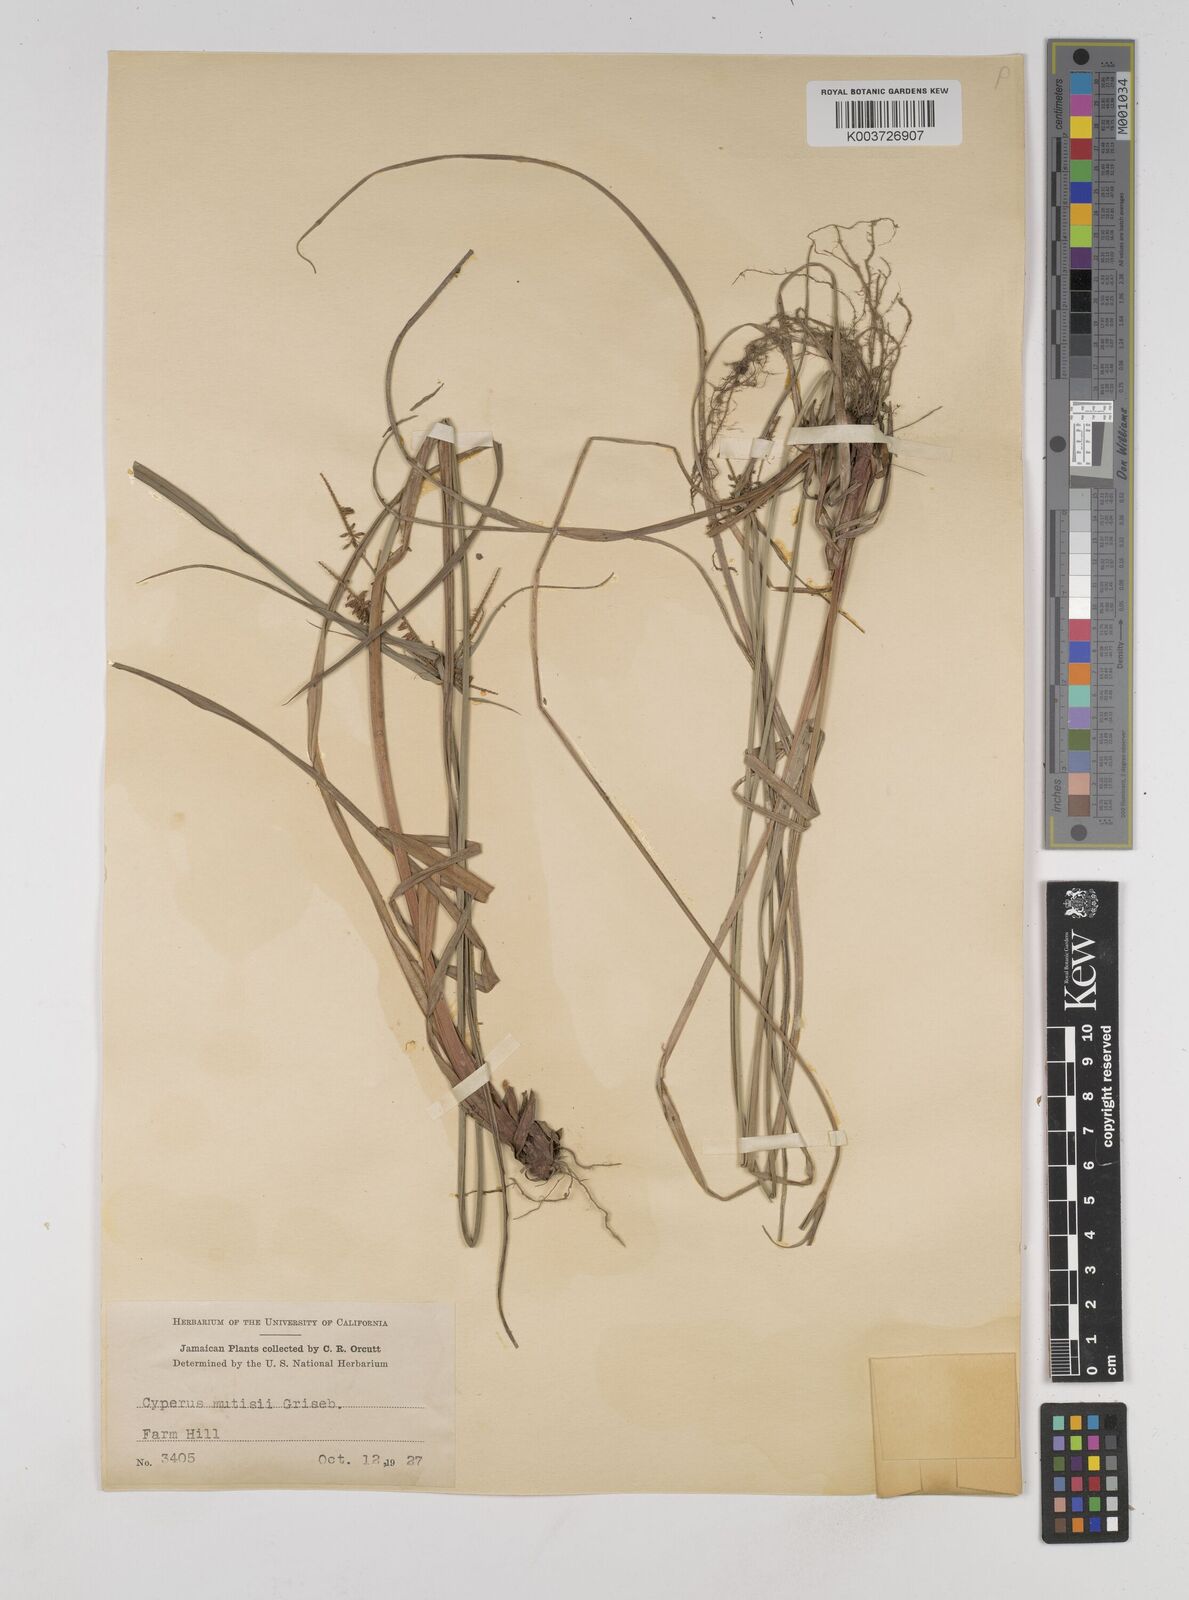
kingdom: Plantae
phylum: Tracheophyta
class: Liliopsida
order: Poales
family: Cyperaceae
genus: Cyperus
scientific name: Cyperus
